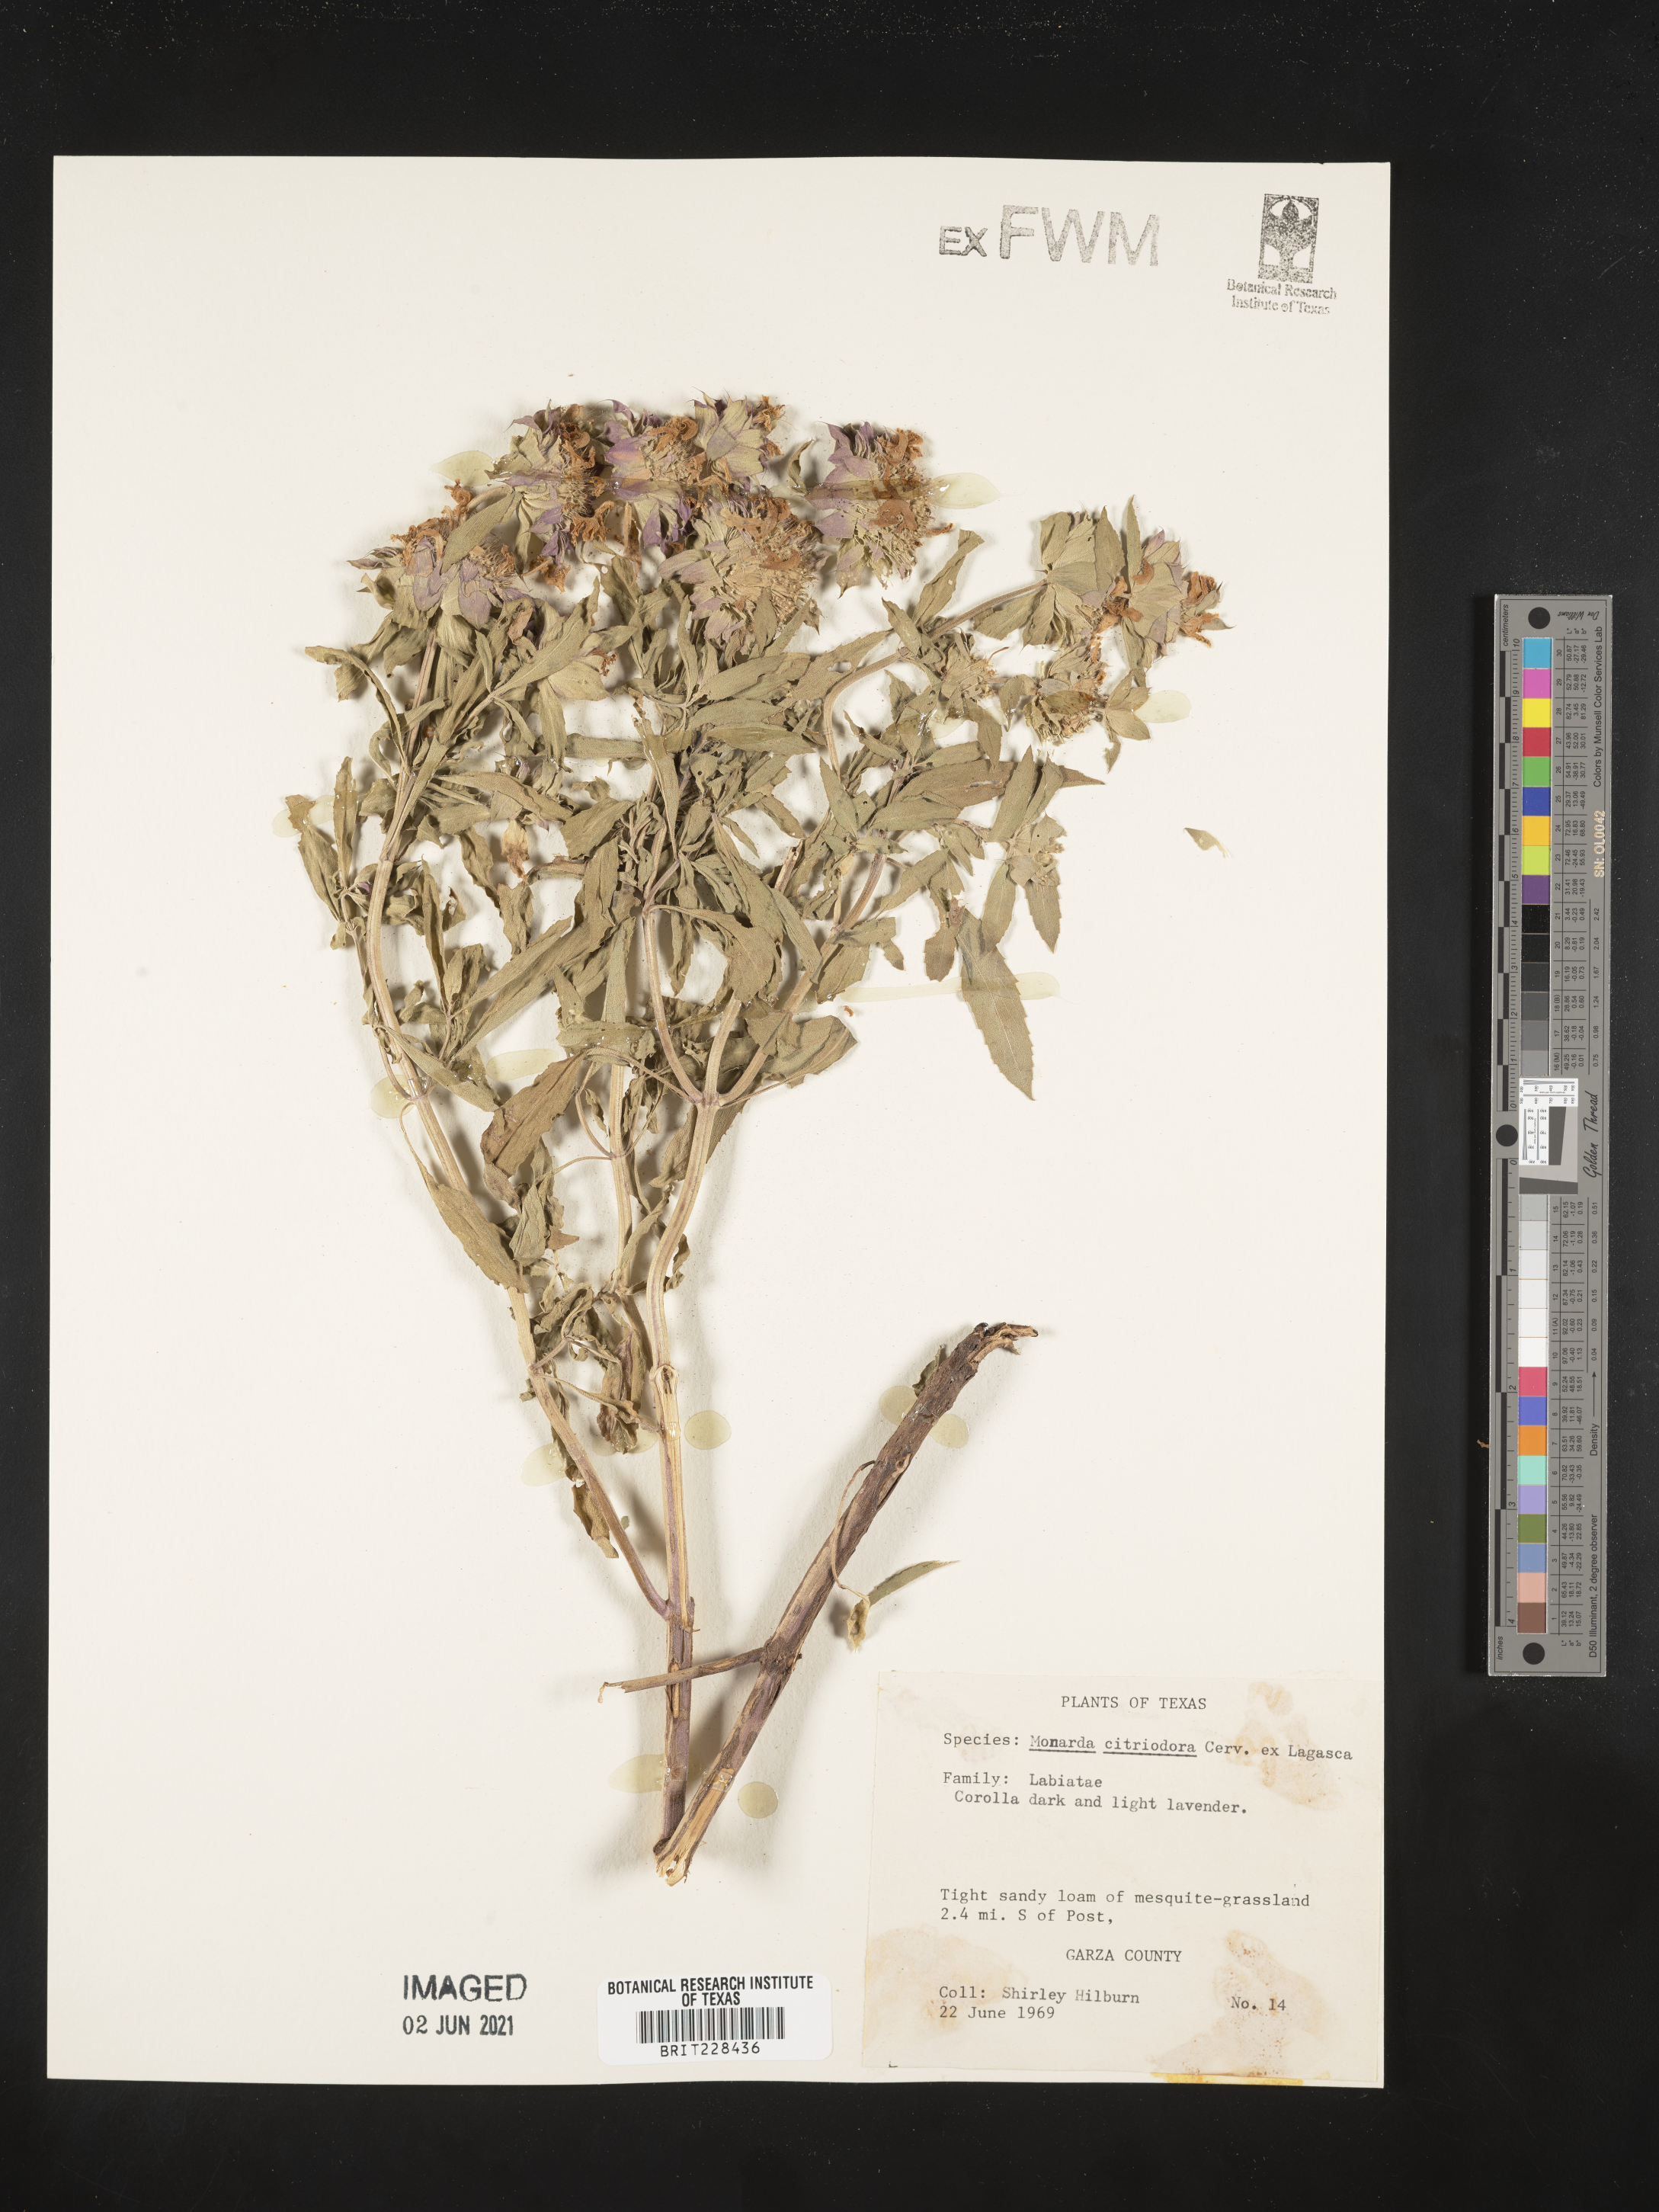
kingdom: Plantae
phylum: Tracheophyta
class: Magnoliopsida
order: Lamiales
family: Lamiaceae
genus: Monarda
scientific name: Monarda citriodora
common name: Lemon beebalm
